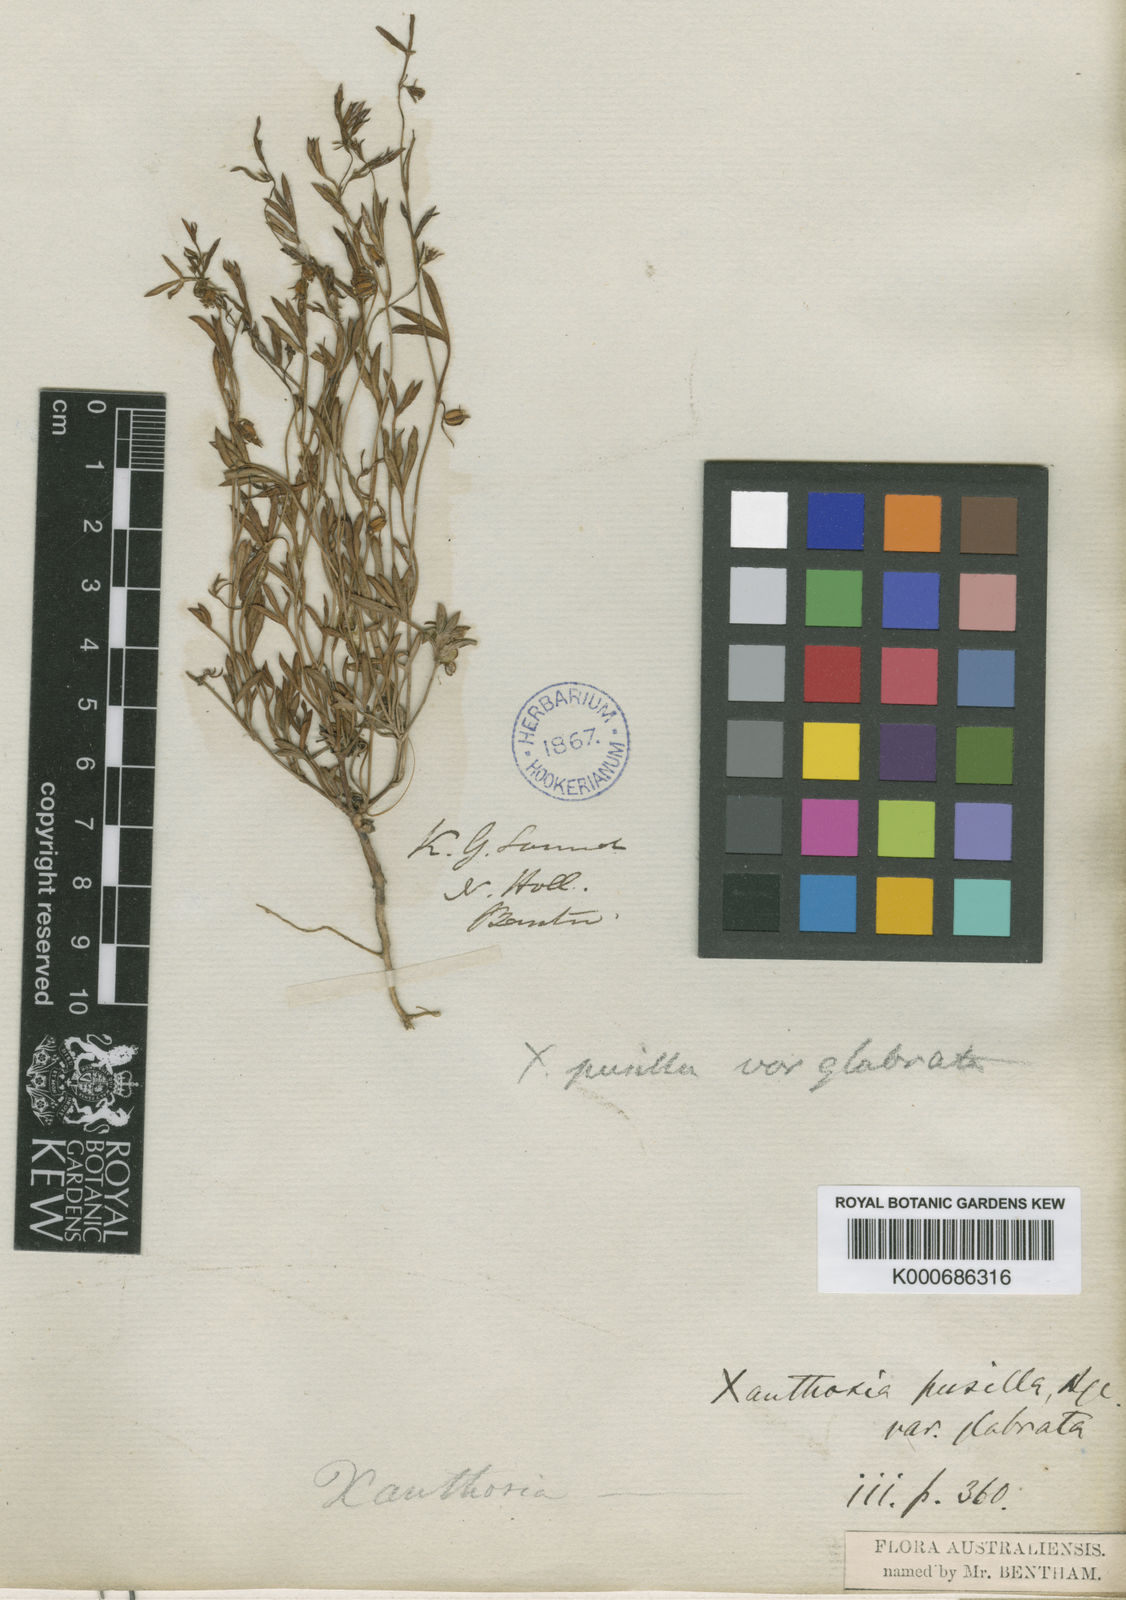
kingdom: Plantae
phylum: Tracheophyta
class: Magnoliopsida
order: Apiales
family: Apiaceae
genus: Xanthosia
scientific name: Xanthosia huegelii
